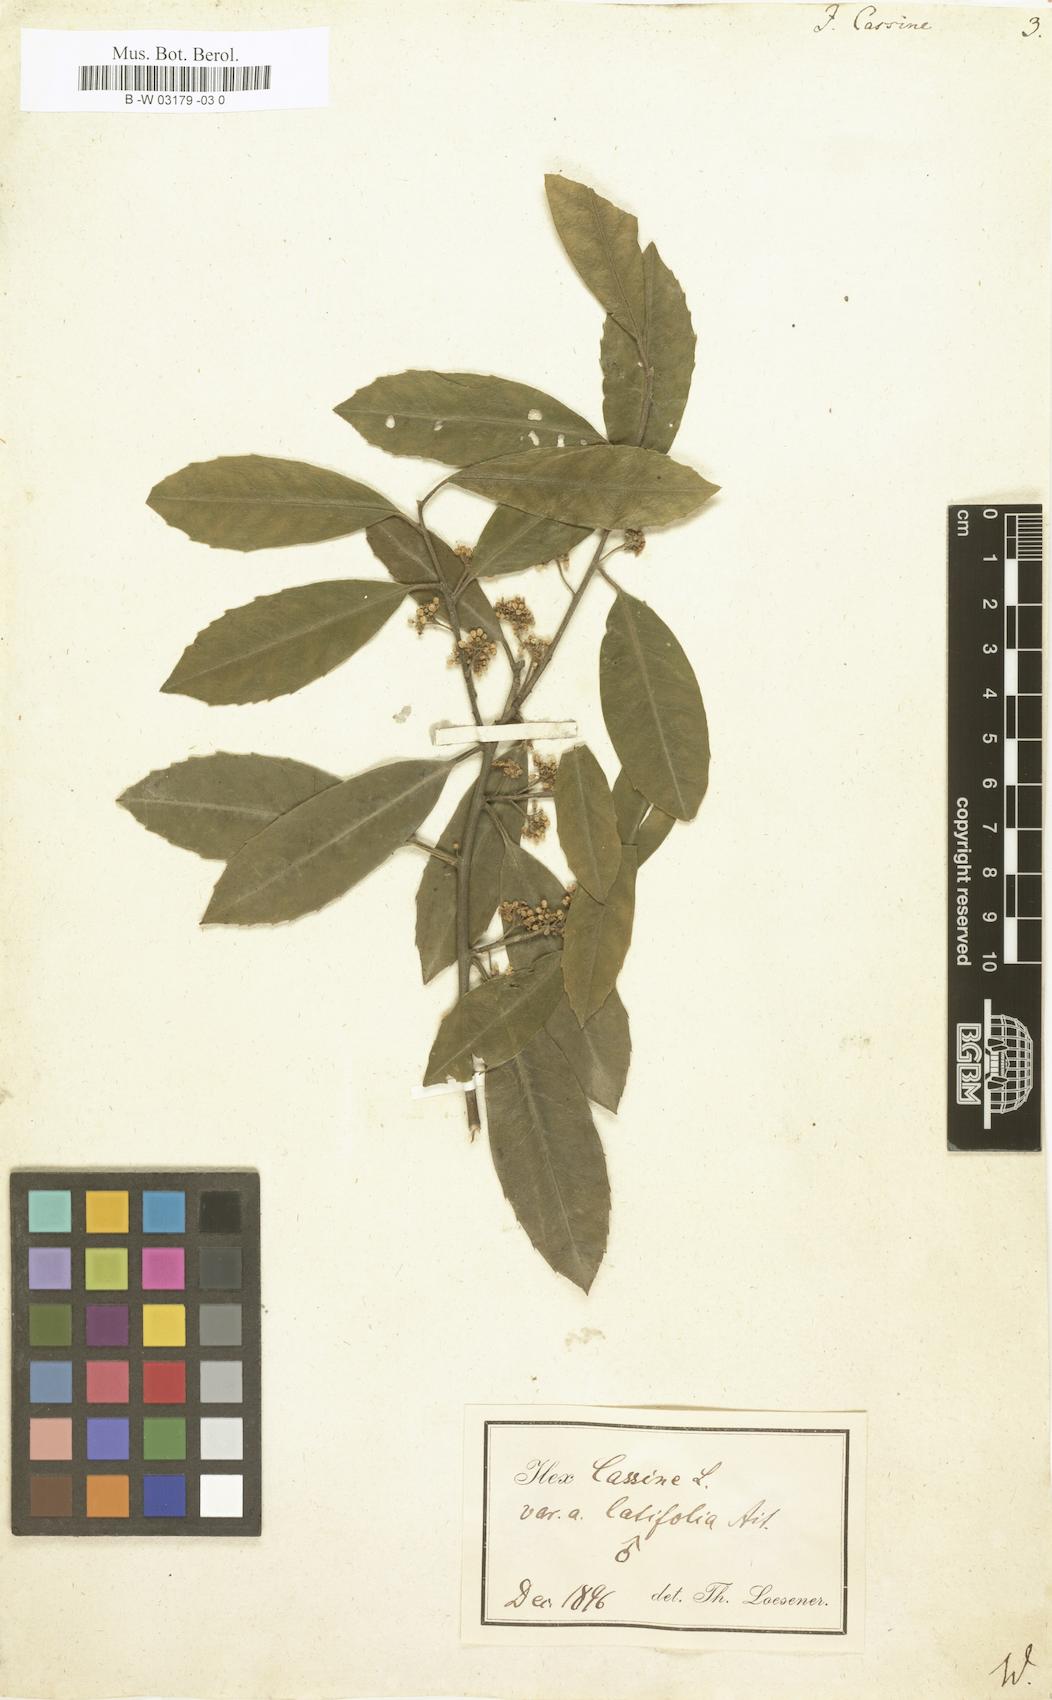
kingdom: Plantae
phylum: Tracheophyta
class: Magnoliopsida
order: Aquifoliales
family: Aquifoliaceae
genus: Ilex
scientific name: Ilex cassine
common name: Dahoon
